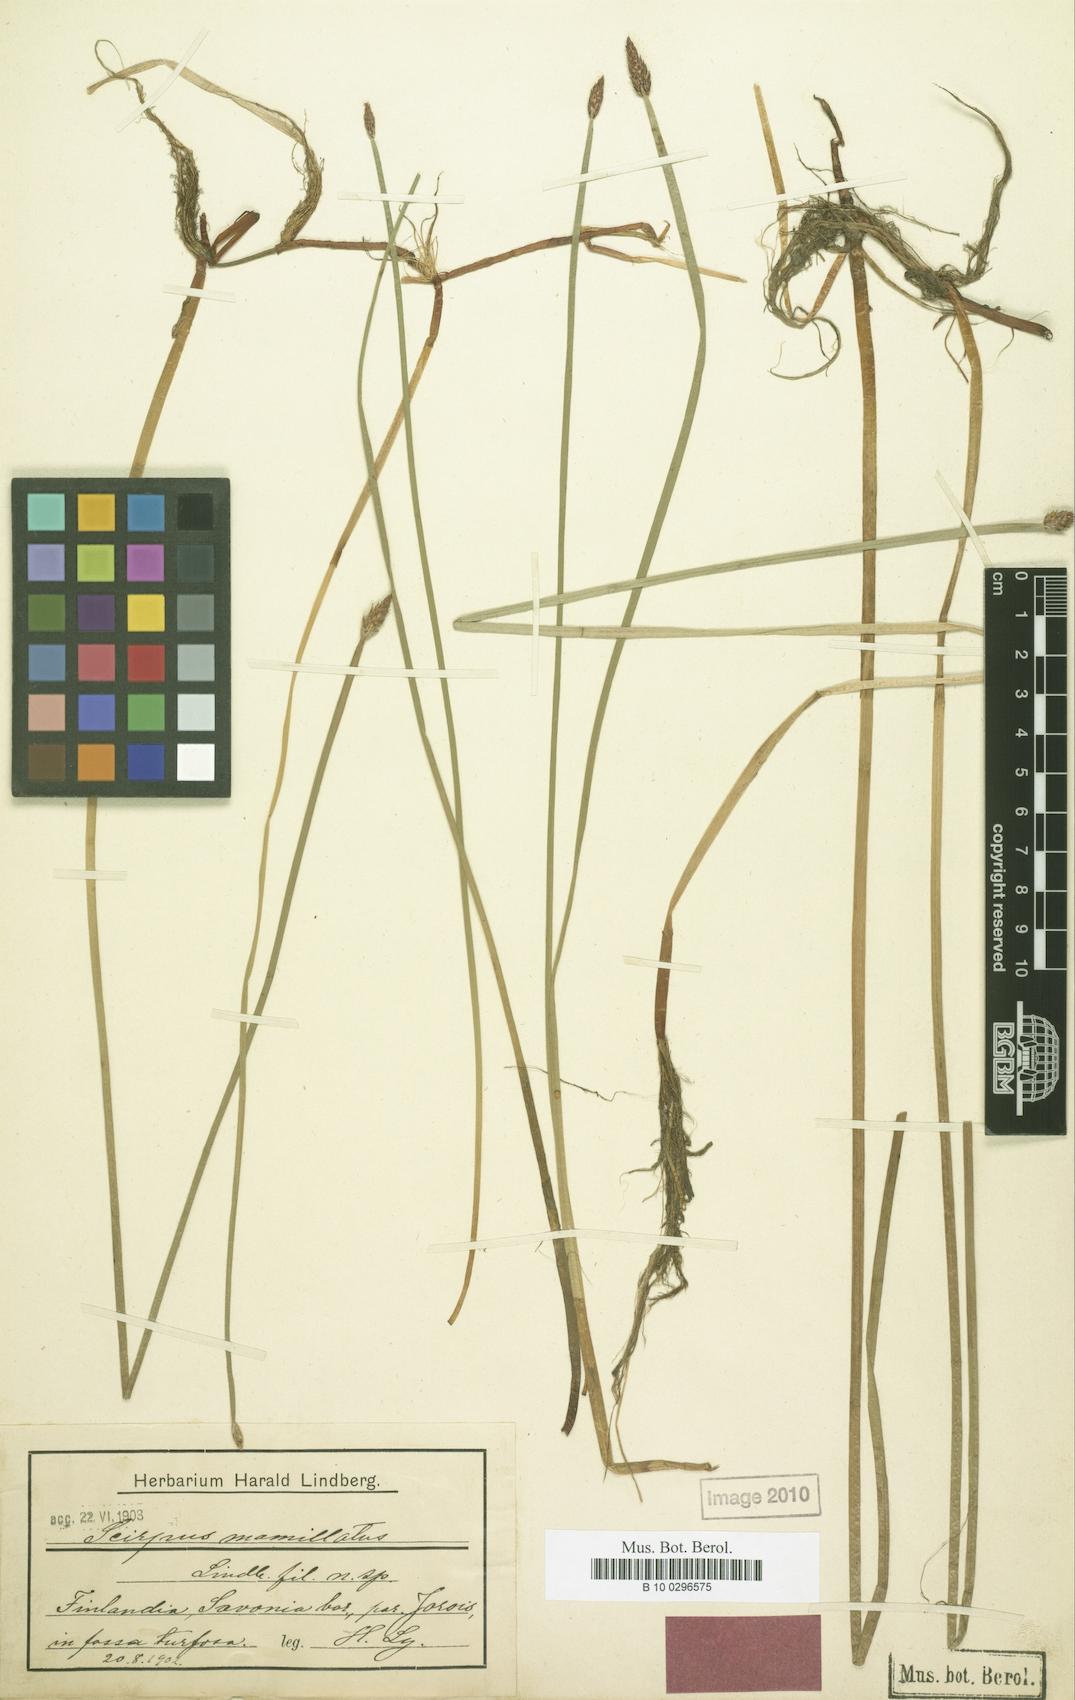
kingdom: Plantae
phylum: Tracheophyta
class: Liliopsida
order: Poales
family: Cyperaceae
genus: Eleocharis
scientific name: Eleocharis mamillata
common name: Northern spike-rush
